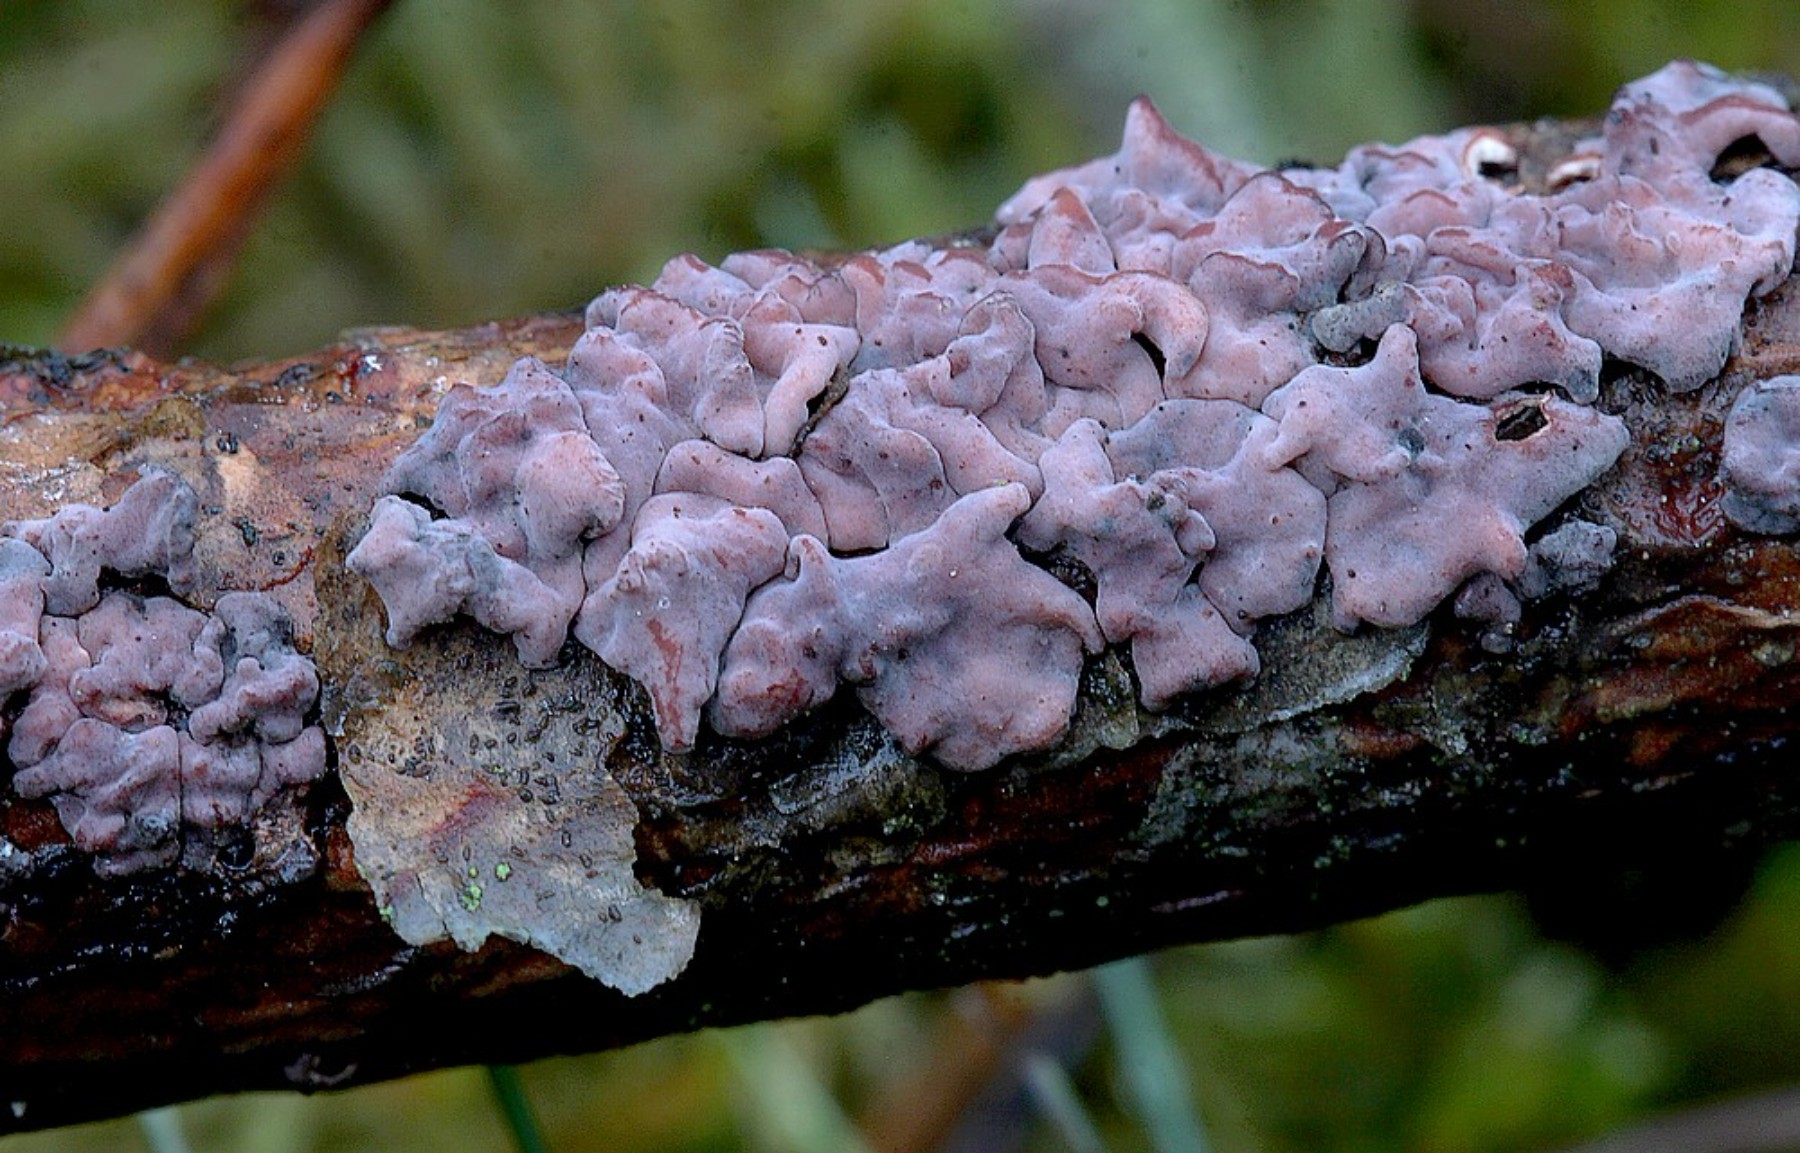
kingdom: Fungi
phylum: Basidiomycota
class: Agaricomycetes
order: Russulales
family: Peniophoraceae
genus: Peniophora
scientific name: Peniophora pini
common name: fyrre-voksskind
